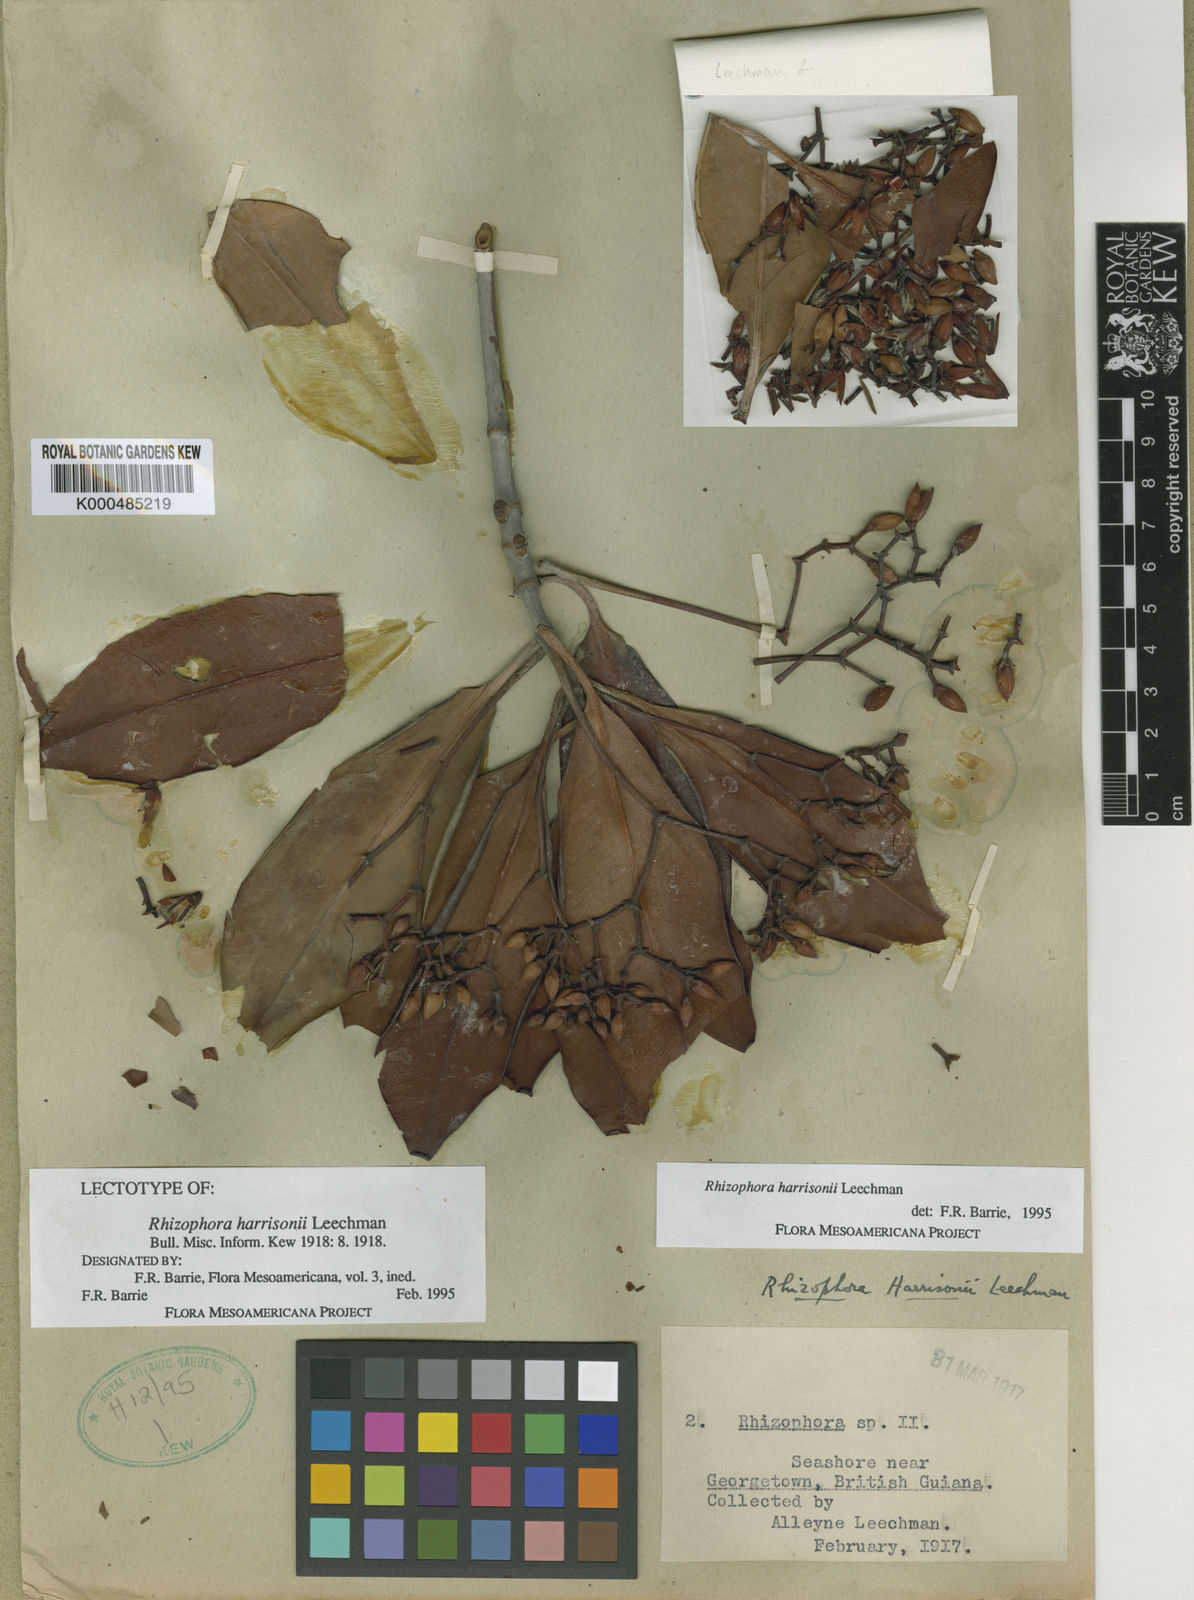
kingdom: Plantae
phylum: Tracheophyta
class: Magnoliopsida
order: Malpighiales
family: Rhizophoraceae
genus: Rhizophora
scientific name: Rhizophora harrisonii
